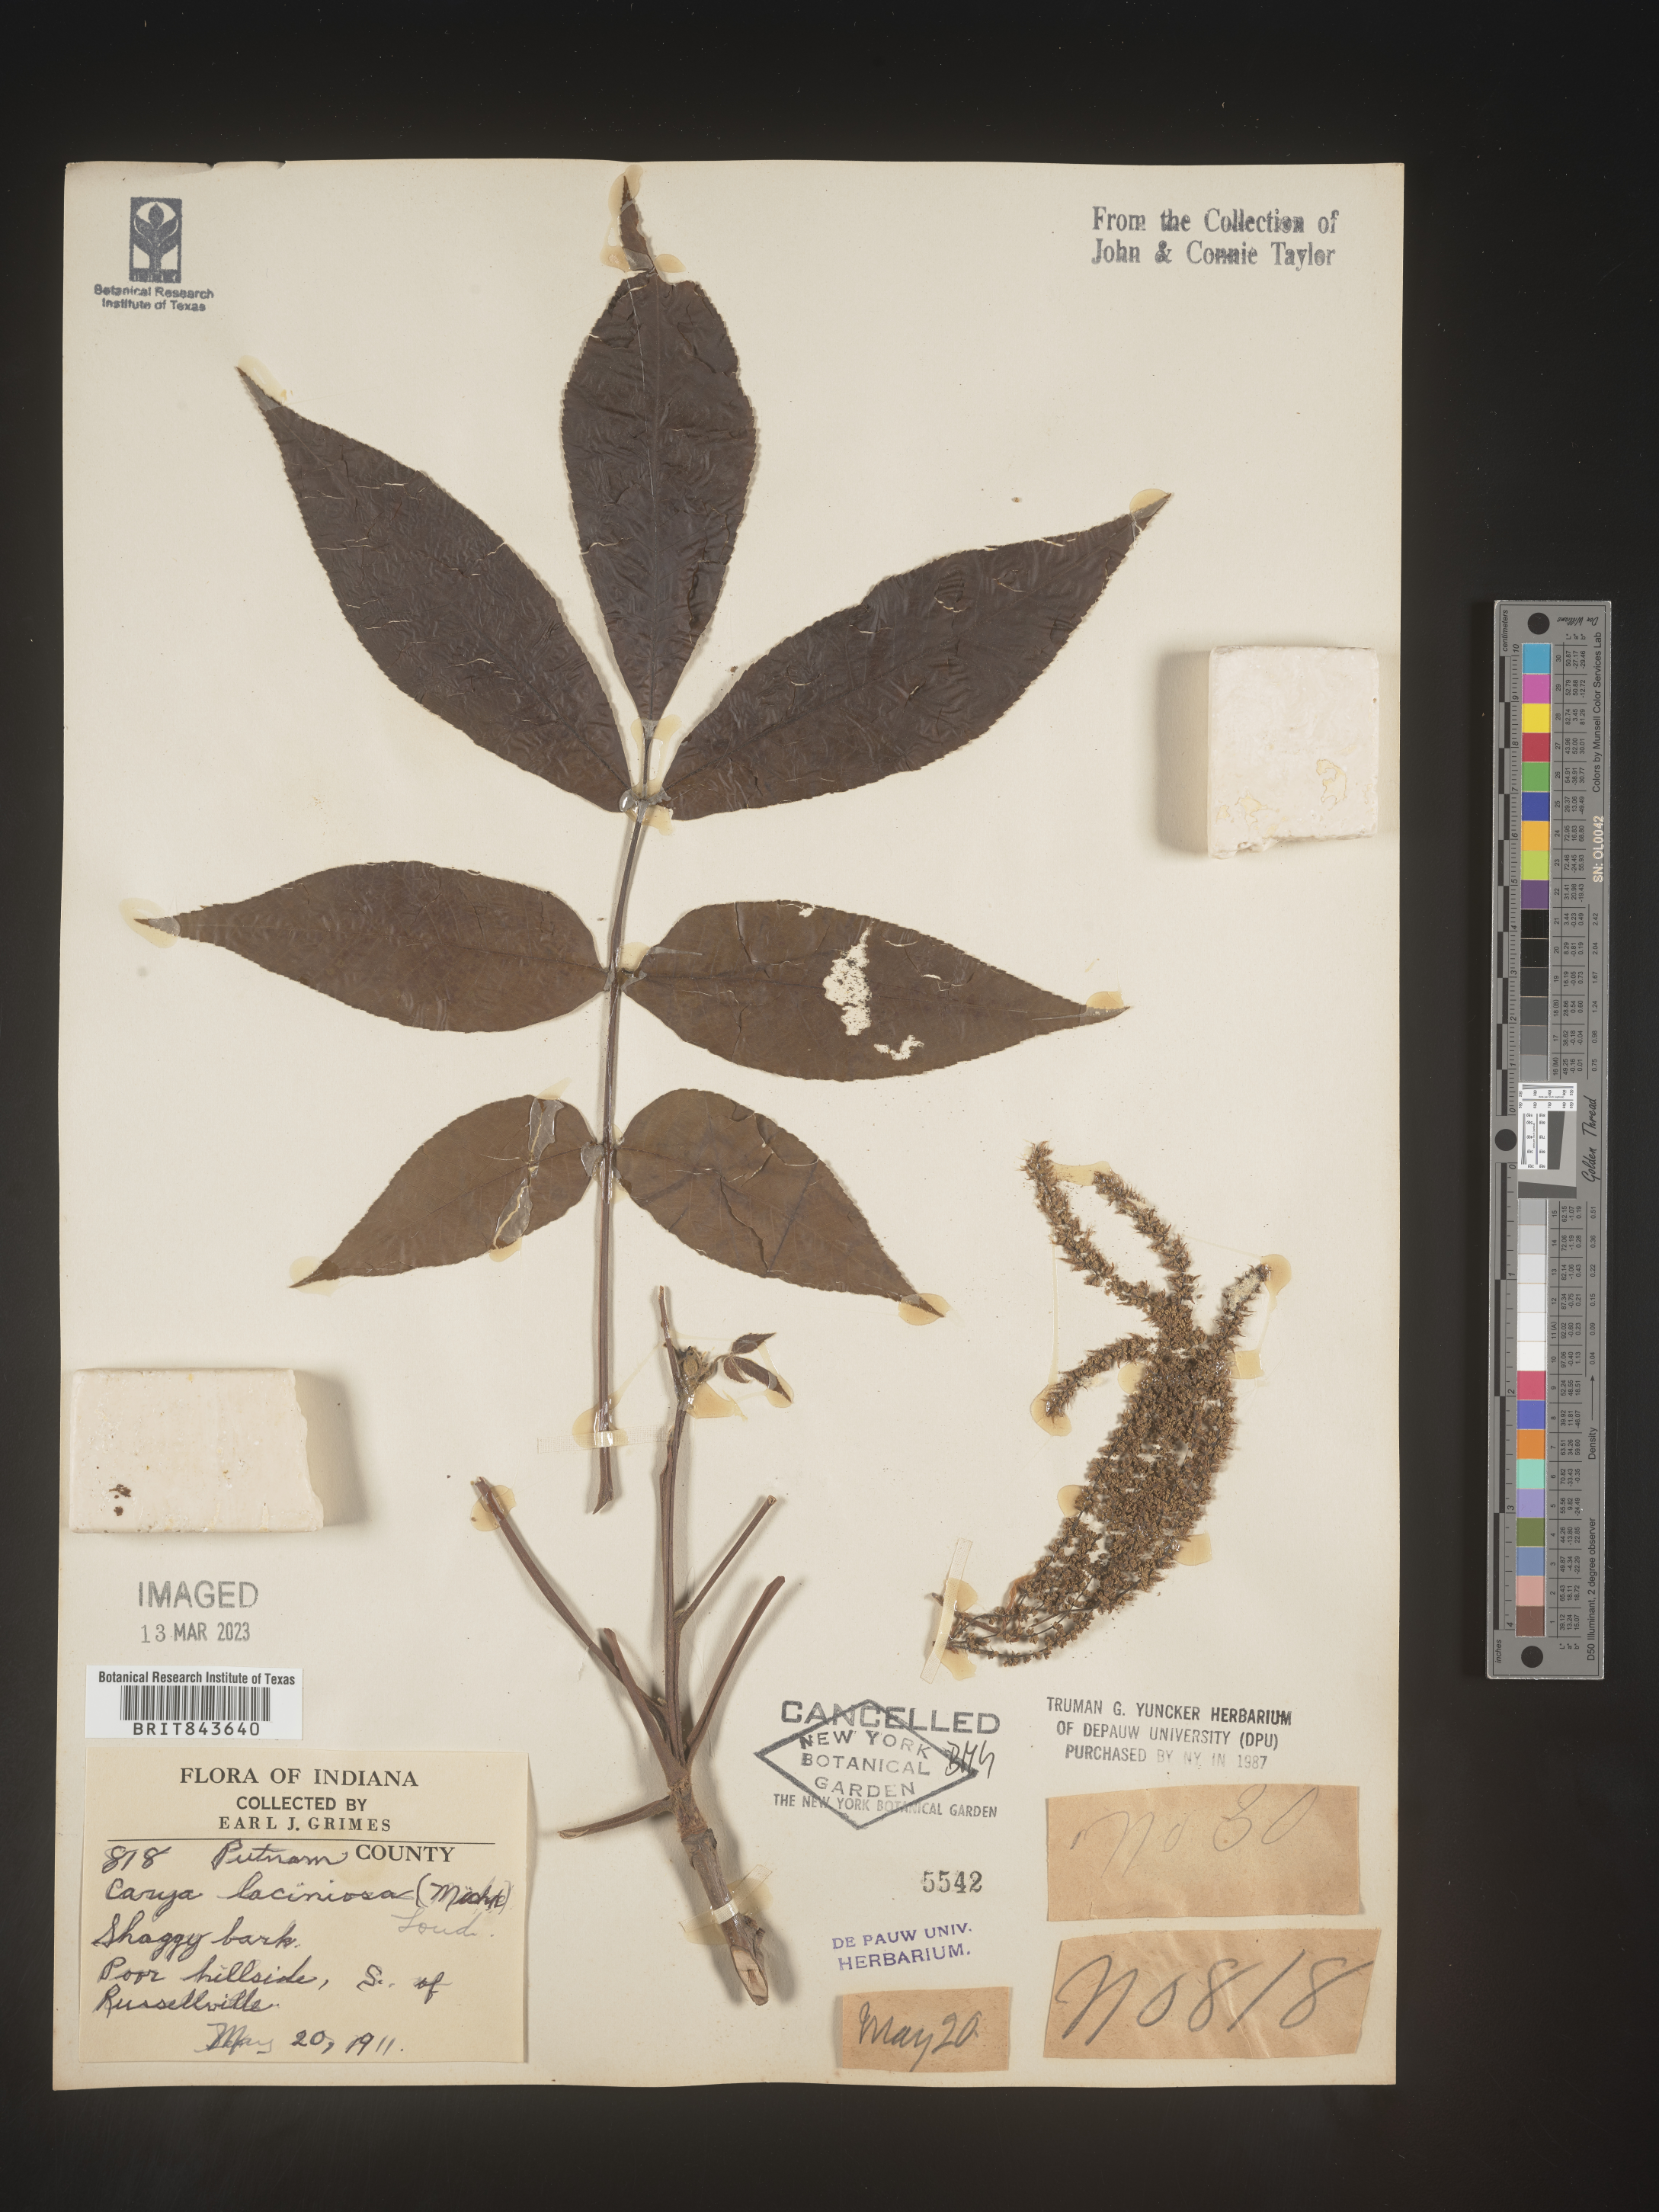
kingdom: Plantae
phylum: Tracheophyta
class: Magnoliopsida
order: Fagales
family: Juglandaceae
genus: Carya
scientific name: Carya laciniosa
